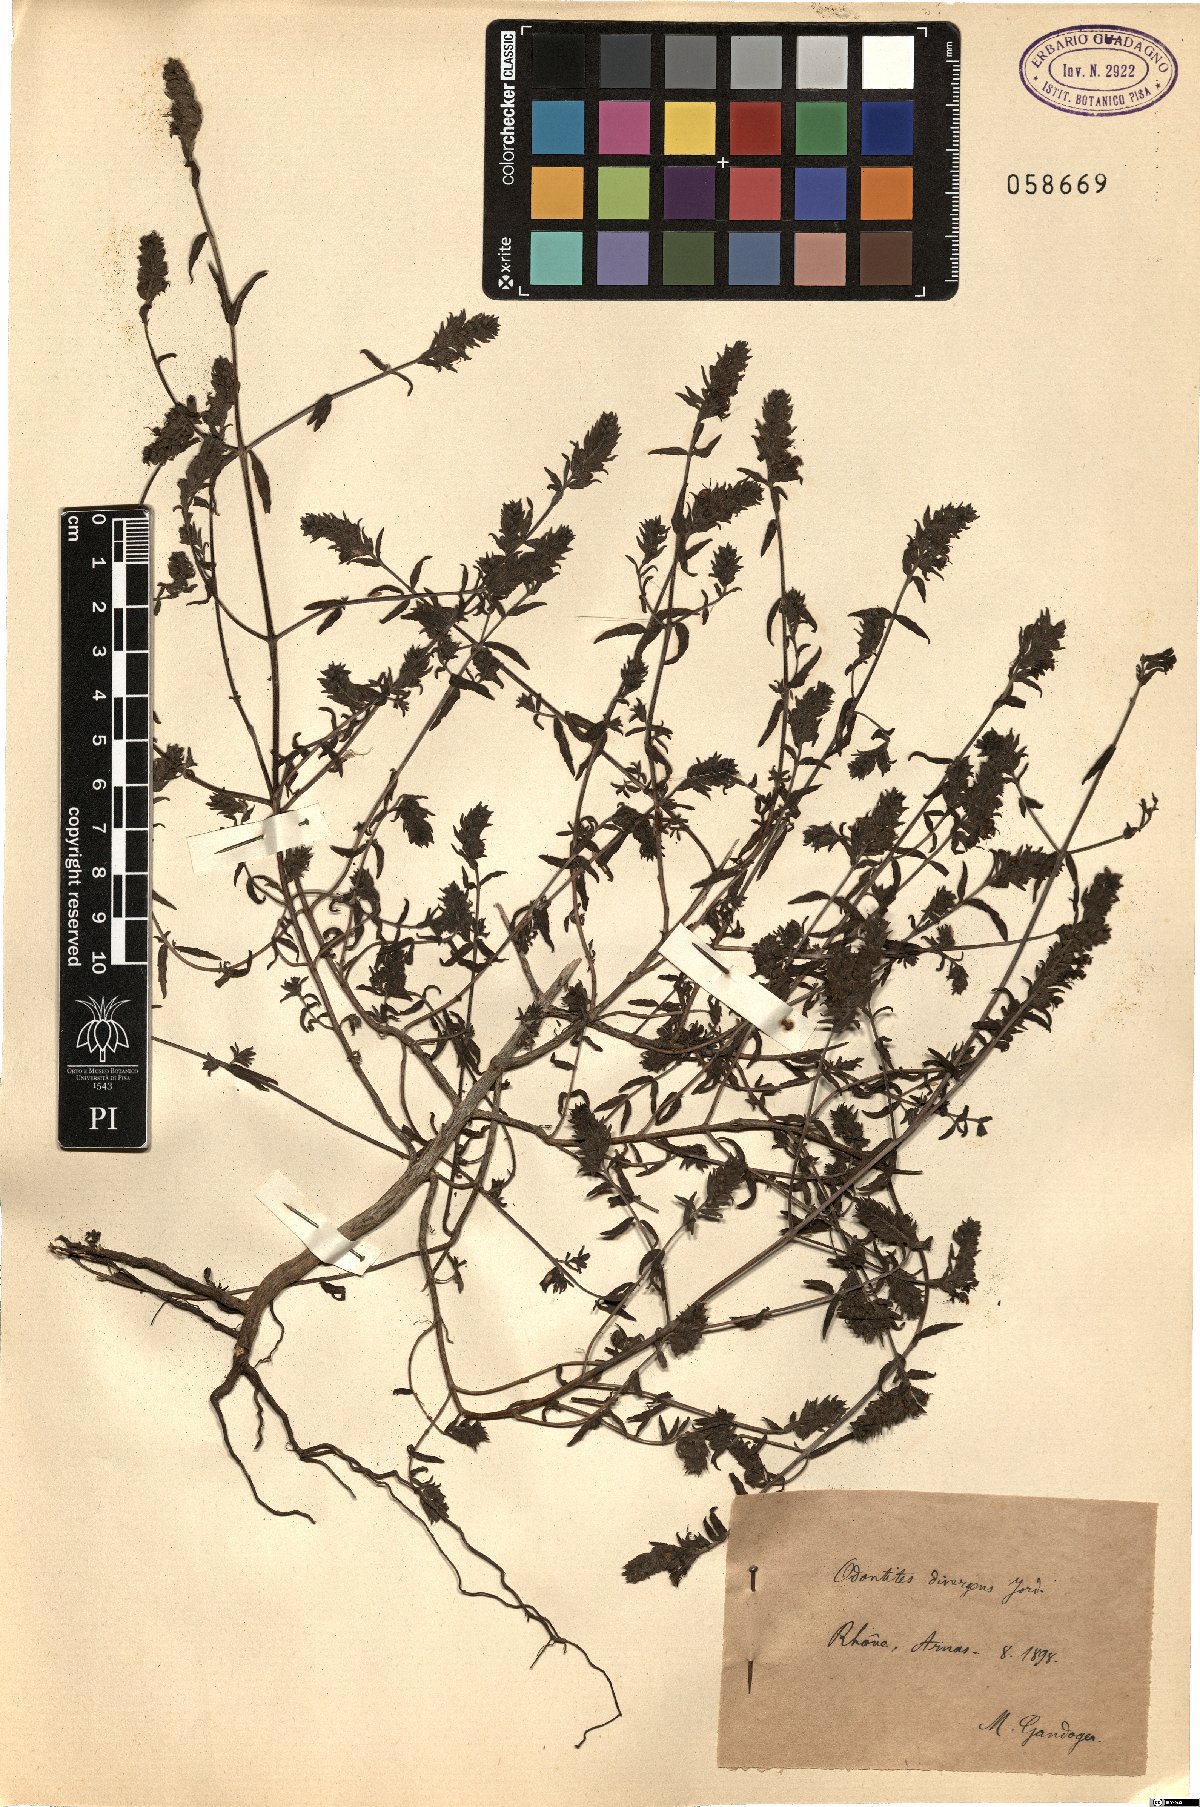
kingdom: Plantae
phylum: Tracheophyta
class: Magnoliopsida
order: Lamiales
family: Orobanchaceae
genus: Odontites
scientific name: Odontites vernus
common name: Red bartsia
